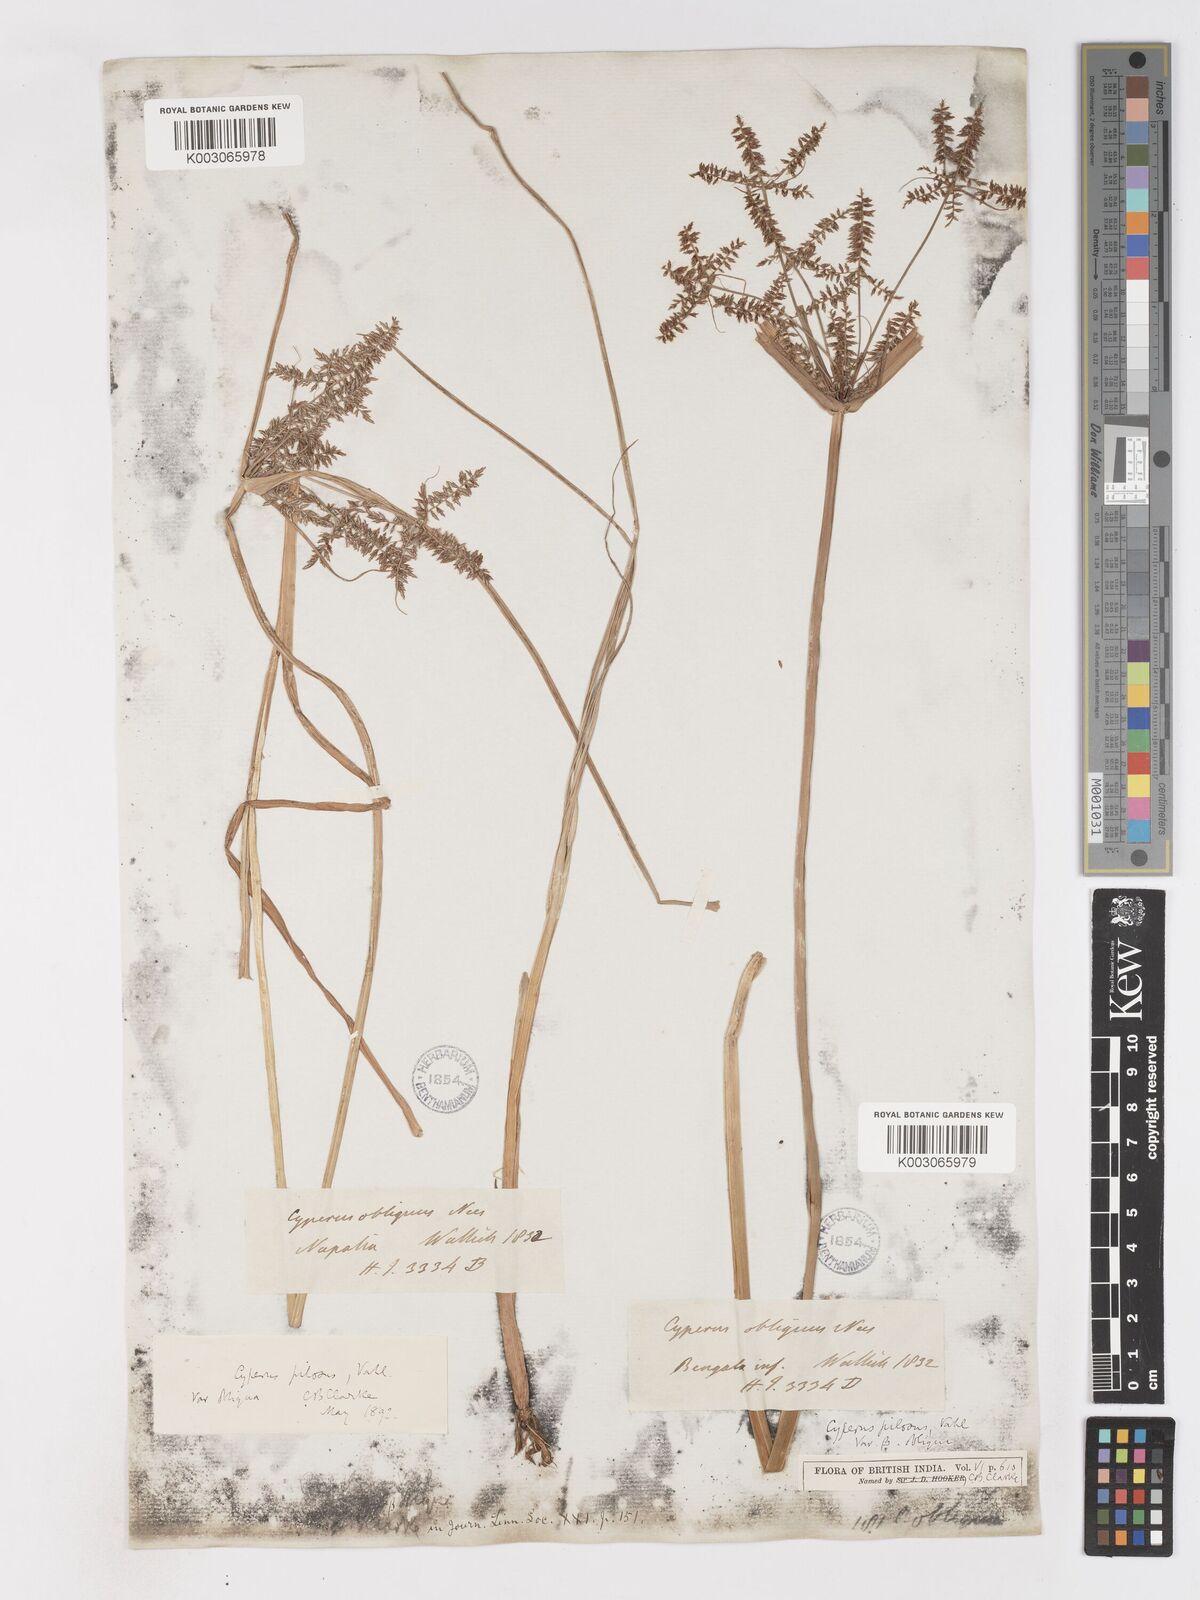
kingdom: Plantae
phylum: Tracheophyta
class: Liliopsida
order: Poales
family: Cyperaceae
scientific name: Cyperaceae
